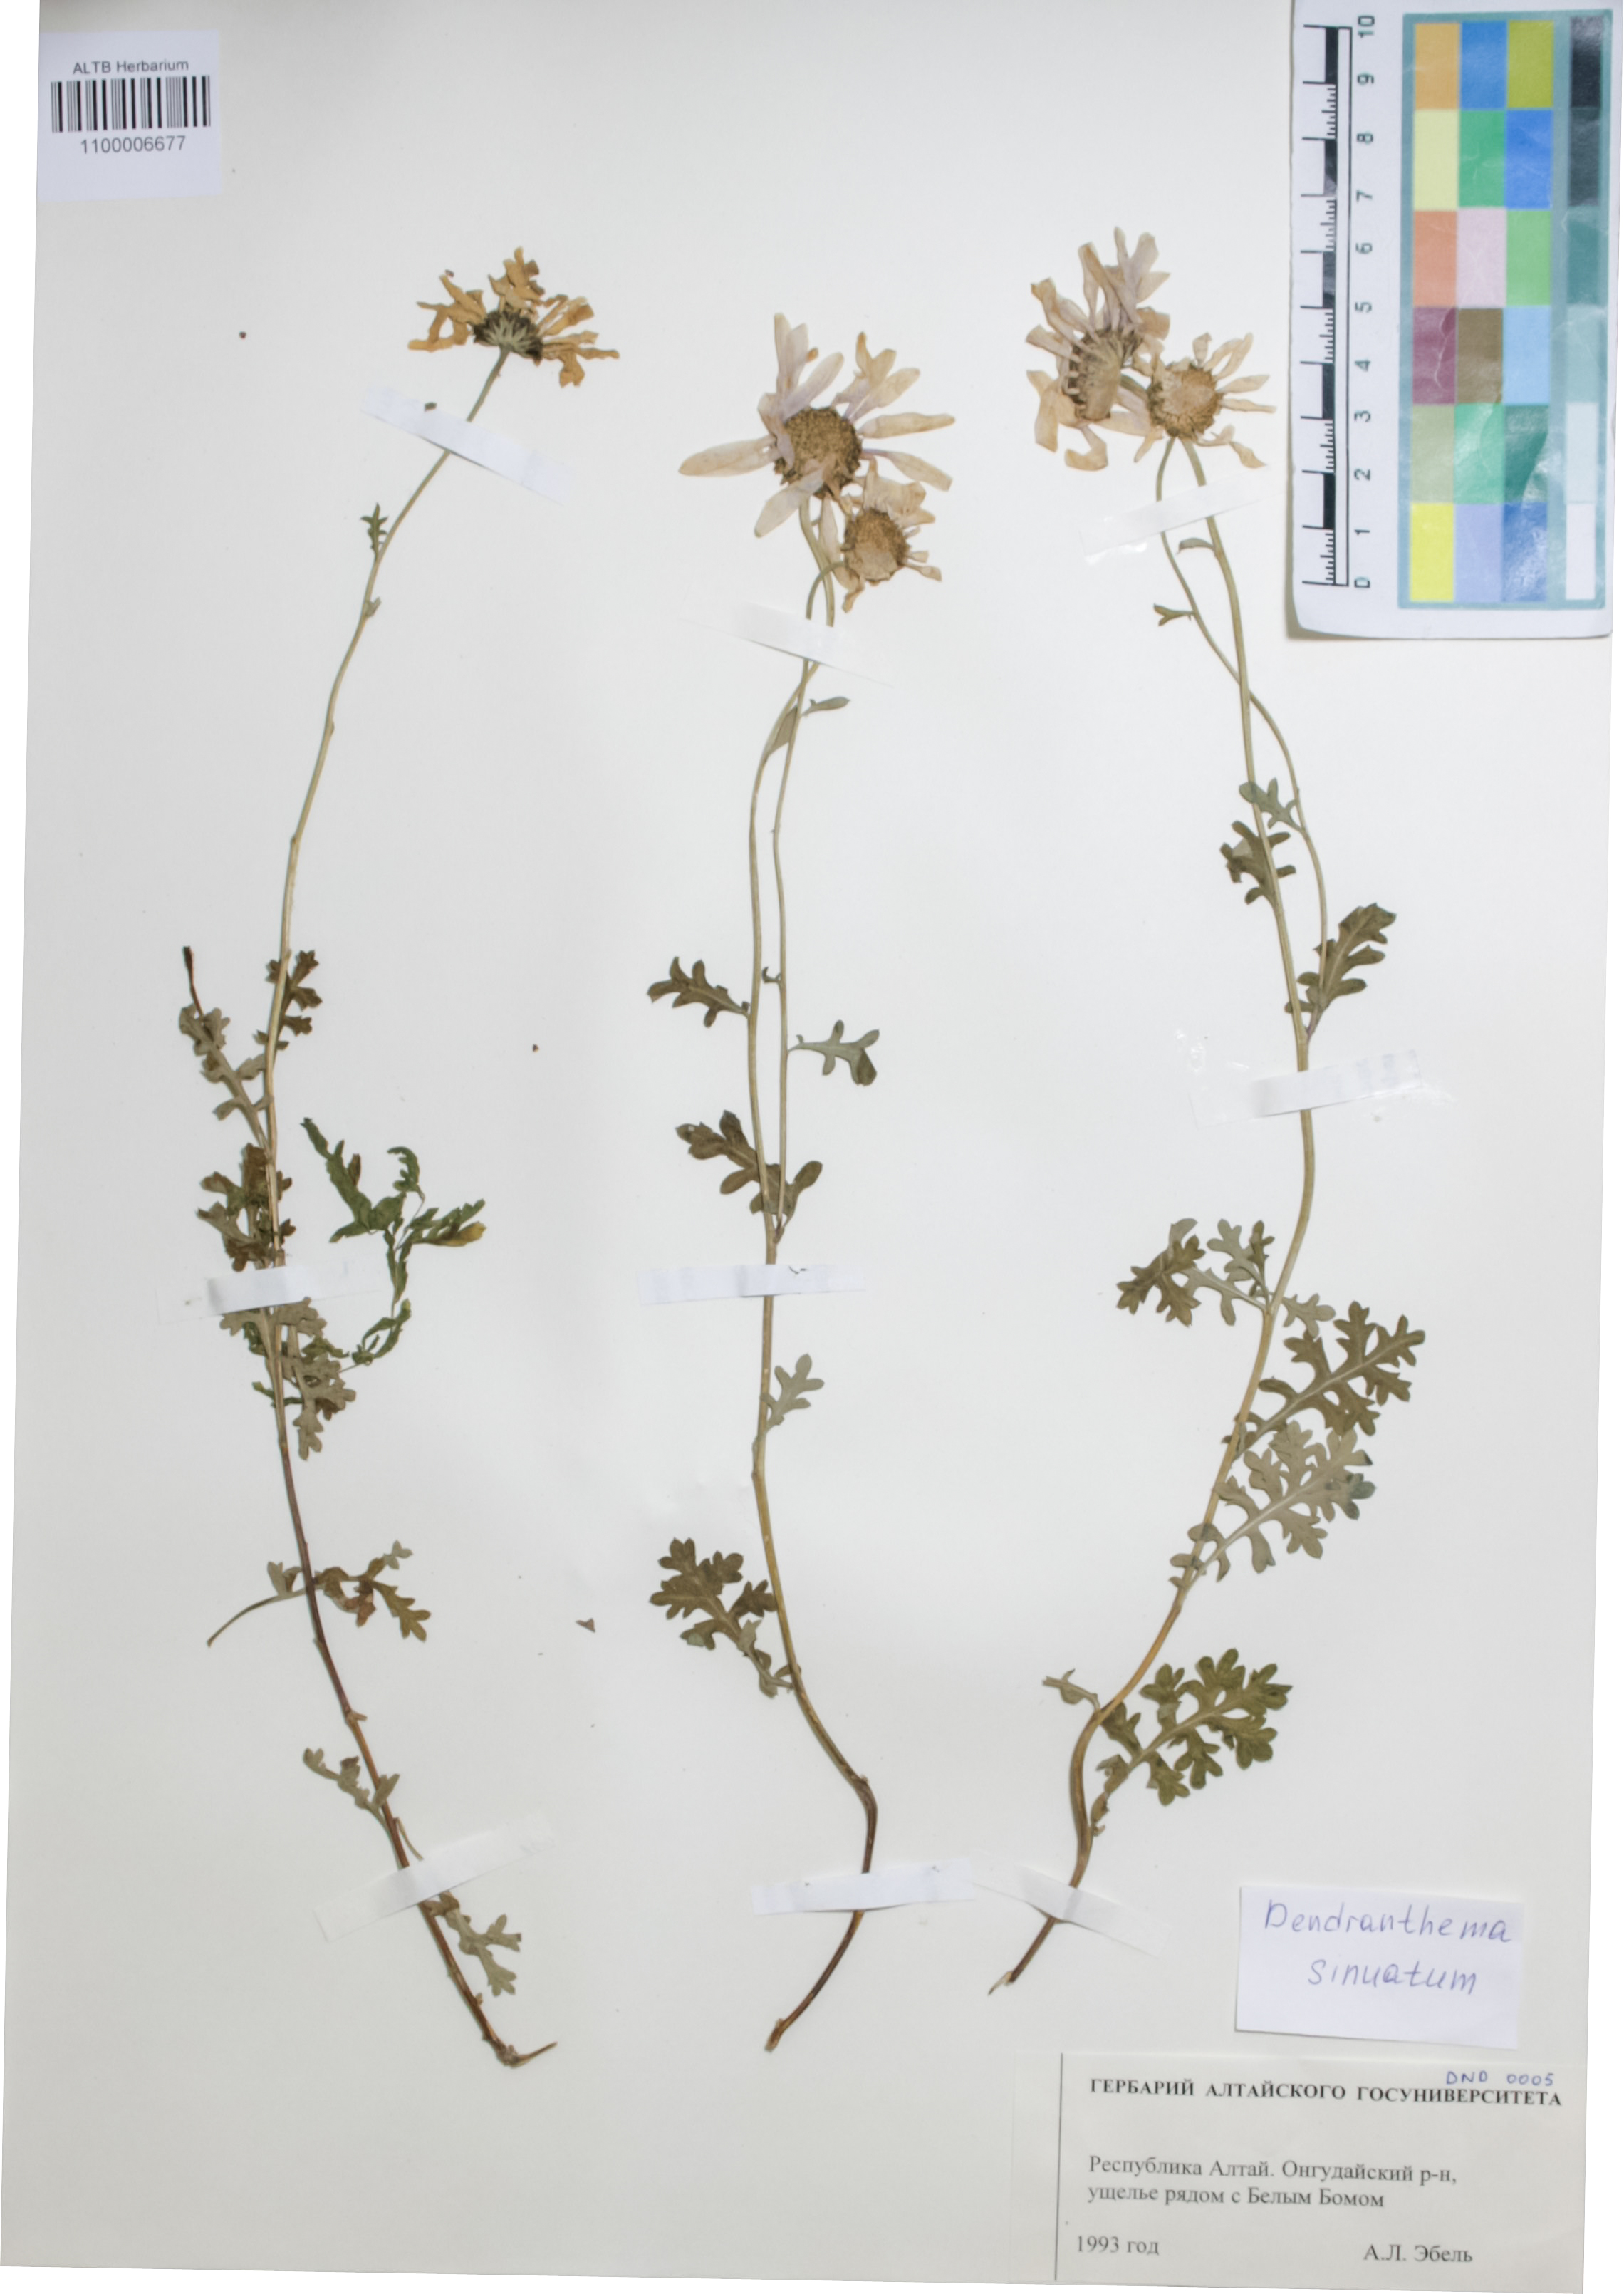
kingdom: Plantae
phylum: Tracheophyta
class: Magnoliopsida
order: Asterales
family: Asteraceae
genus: Chrysanthemum
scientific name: Chrysanthemum sinuatum
